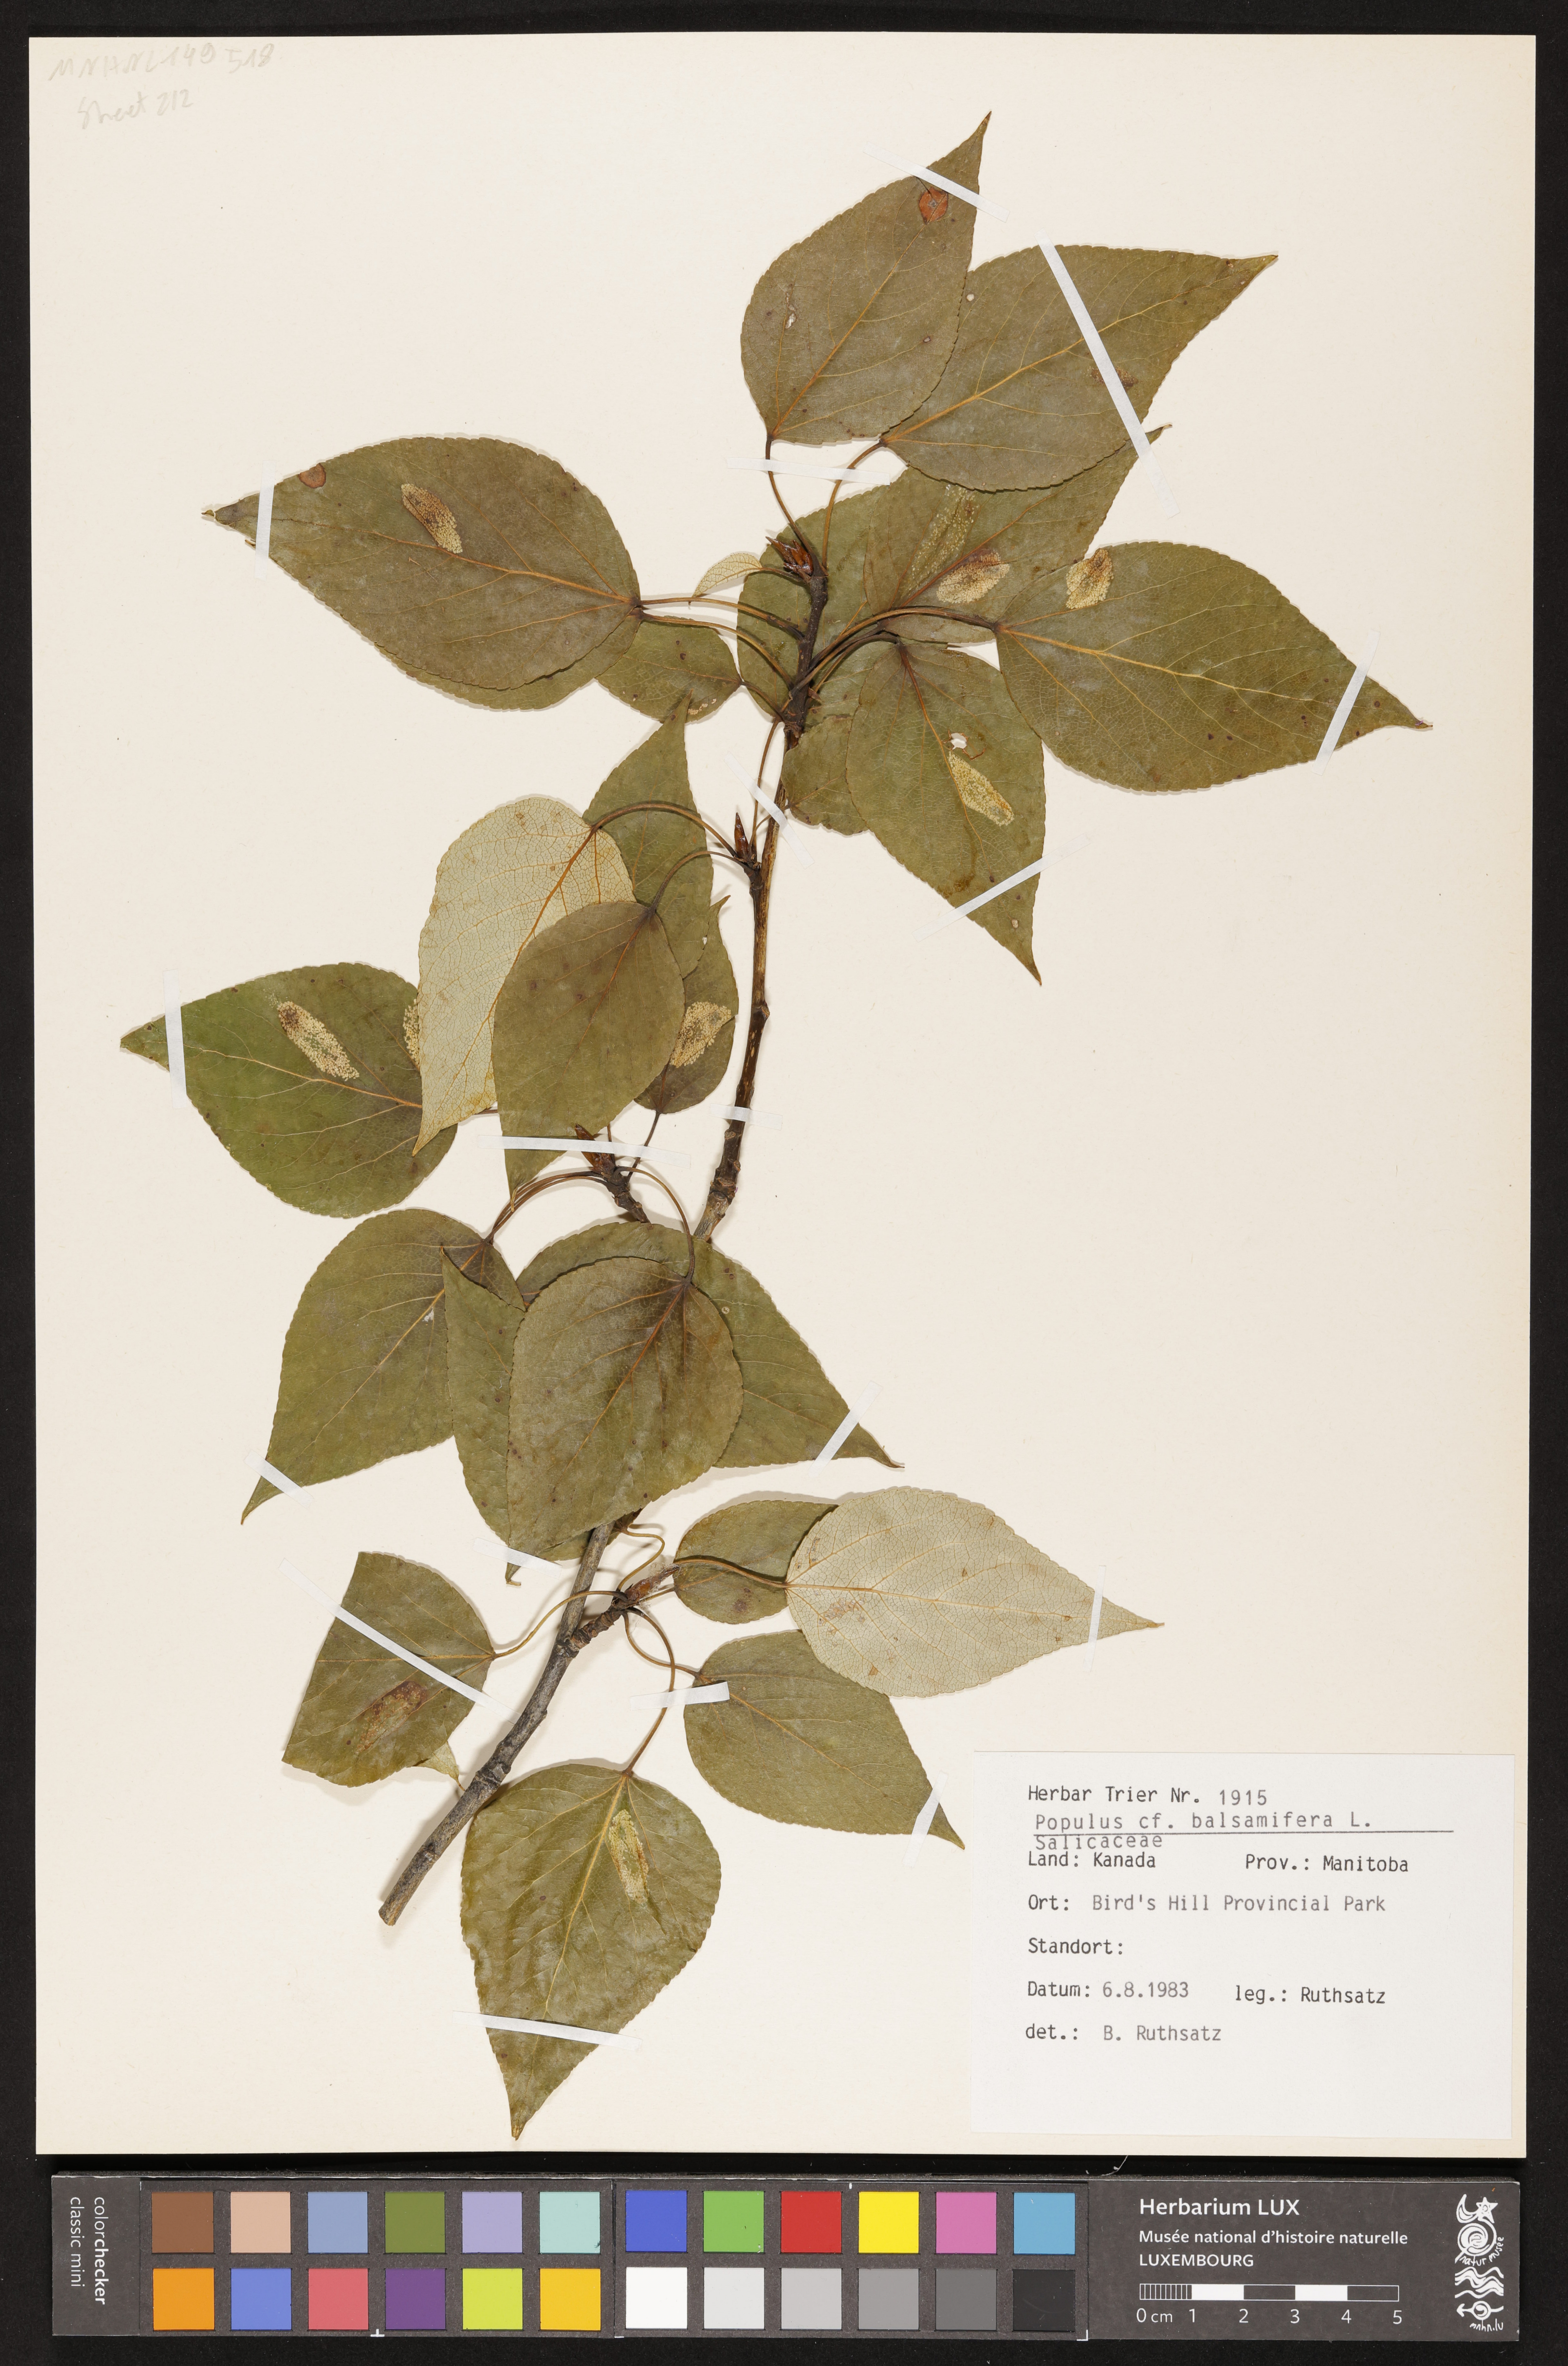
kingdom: Plantae
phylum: Tracheophyta
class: Magnoliopsida
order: Malpighiales
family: Salicaceae
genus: Populus
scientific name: Populus balsamifera
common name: Balsam poplar
